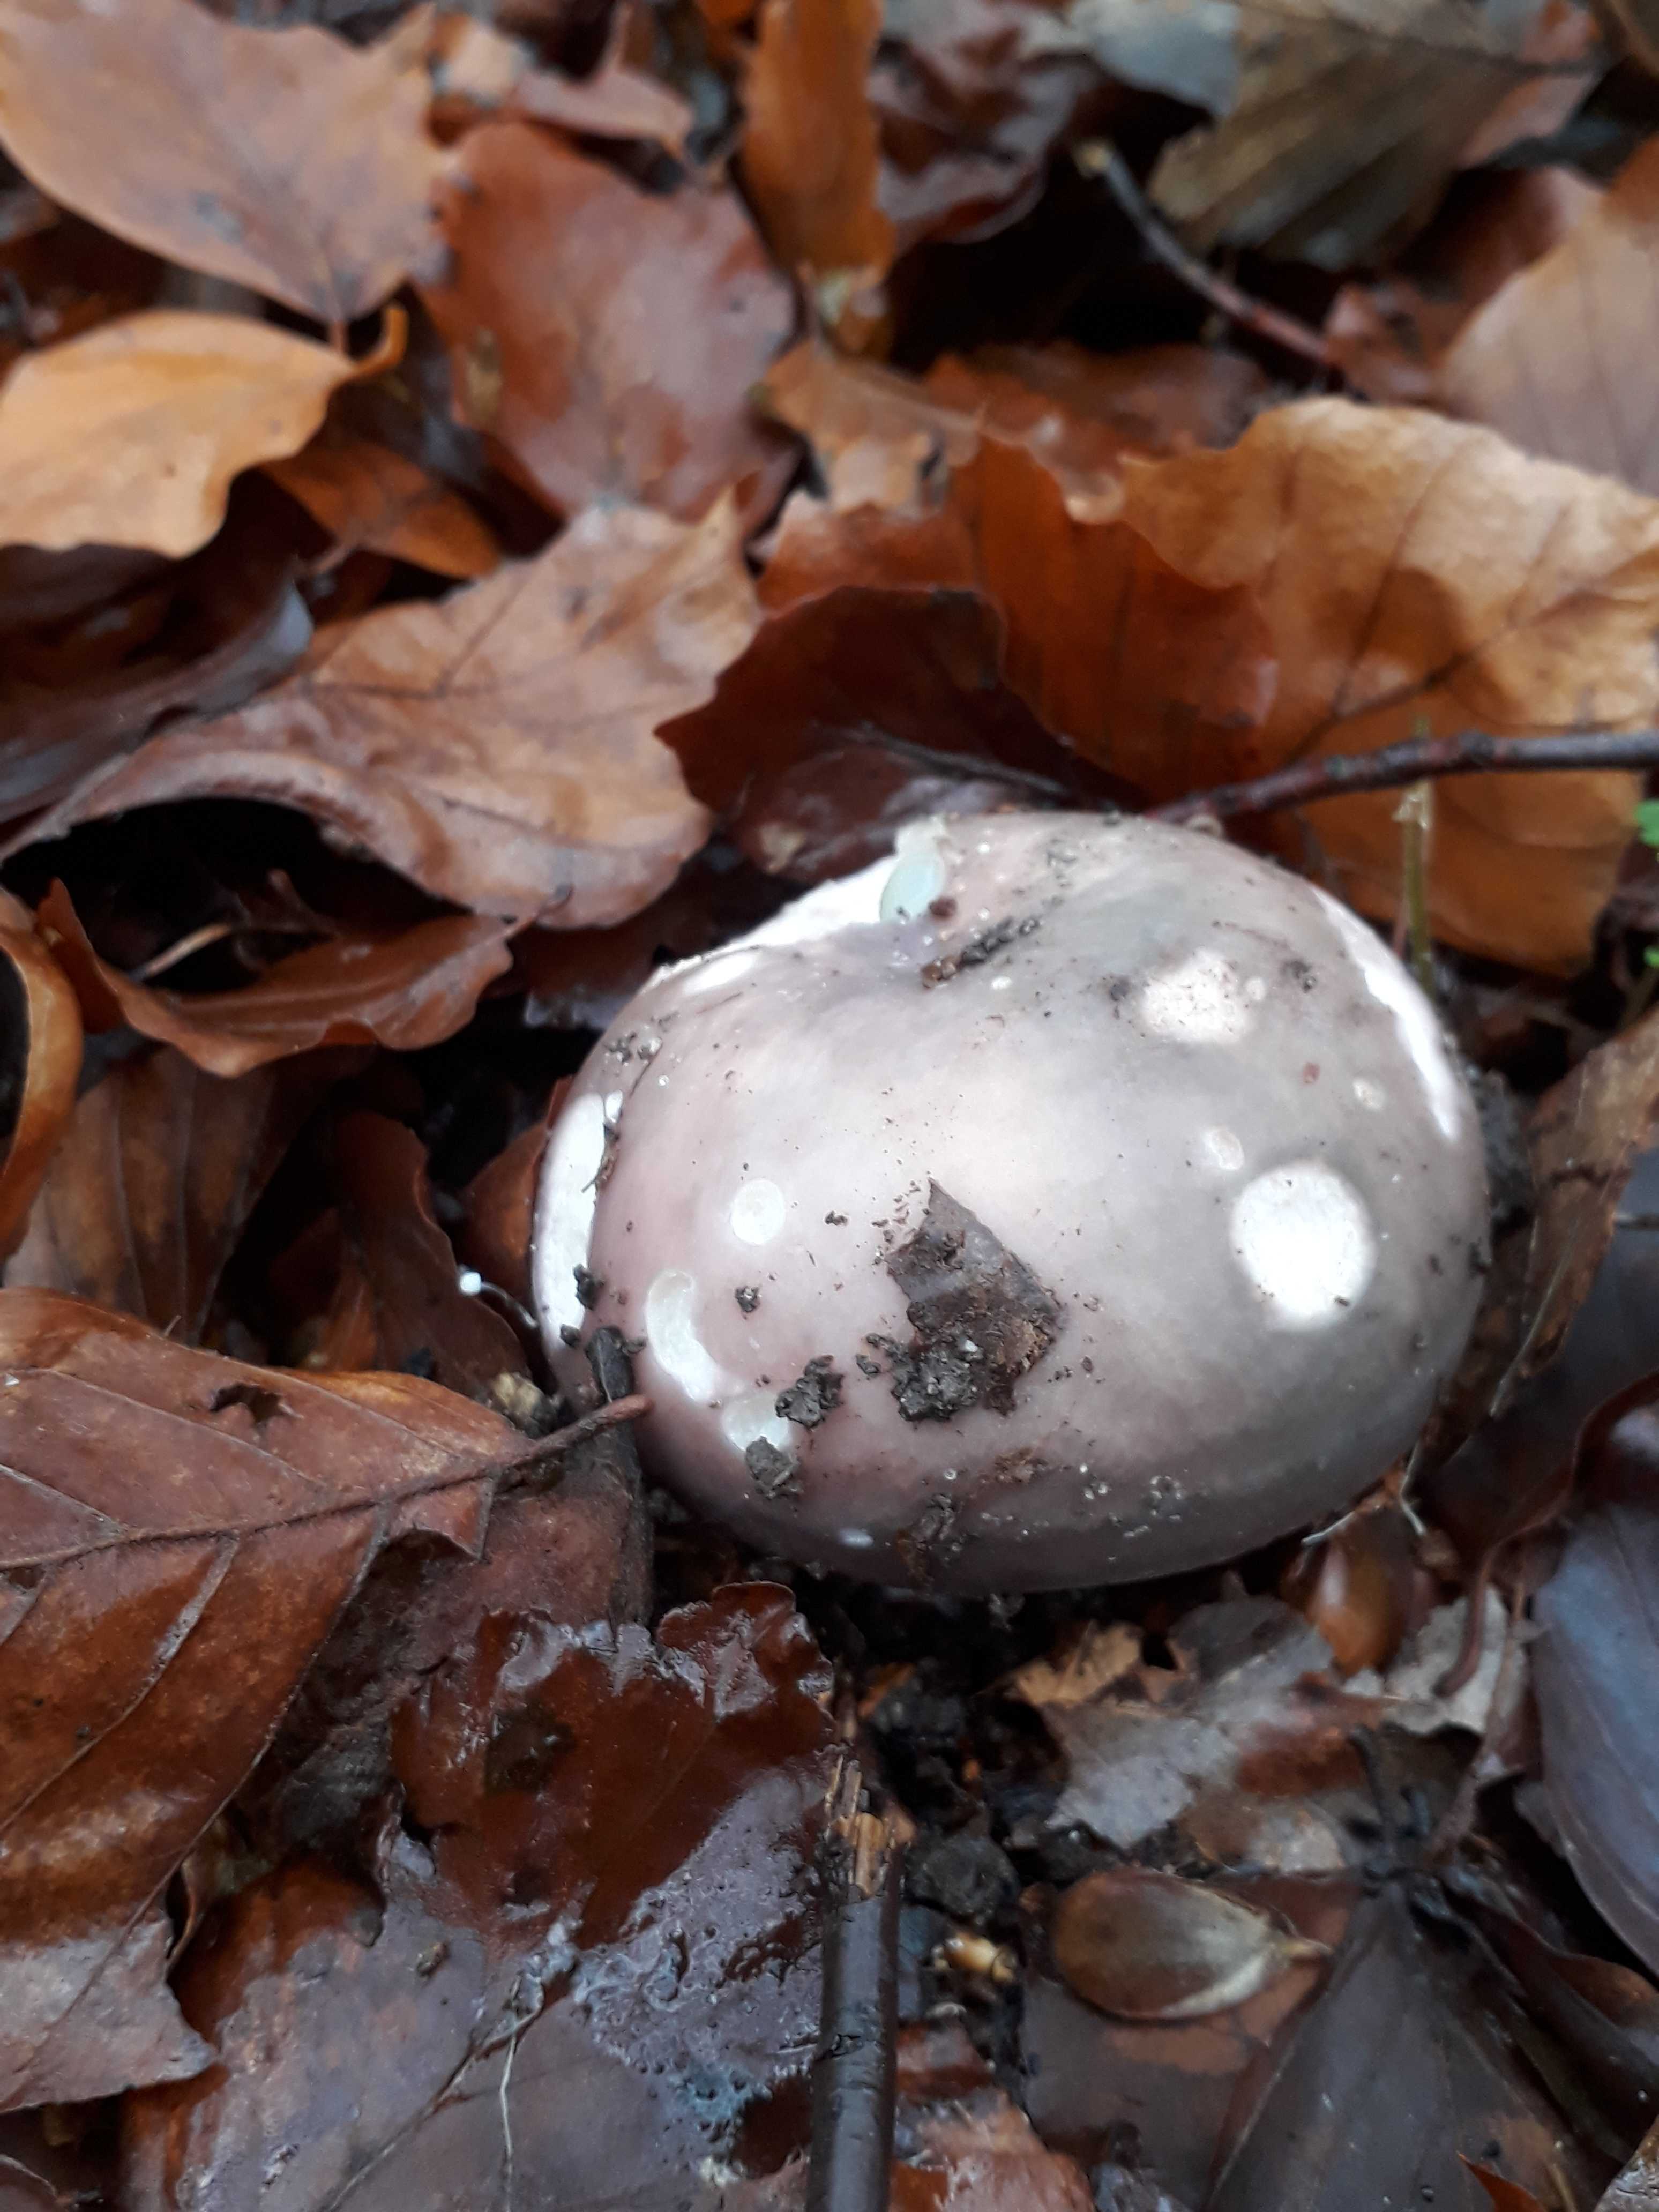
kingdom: Fungi
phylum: Basidiomycota
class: Agaricomycetes
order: Russulales
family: Russulaceae
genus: Russula
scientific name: Russula cyanoxantha
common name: broget skørhat
